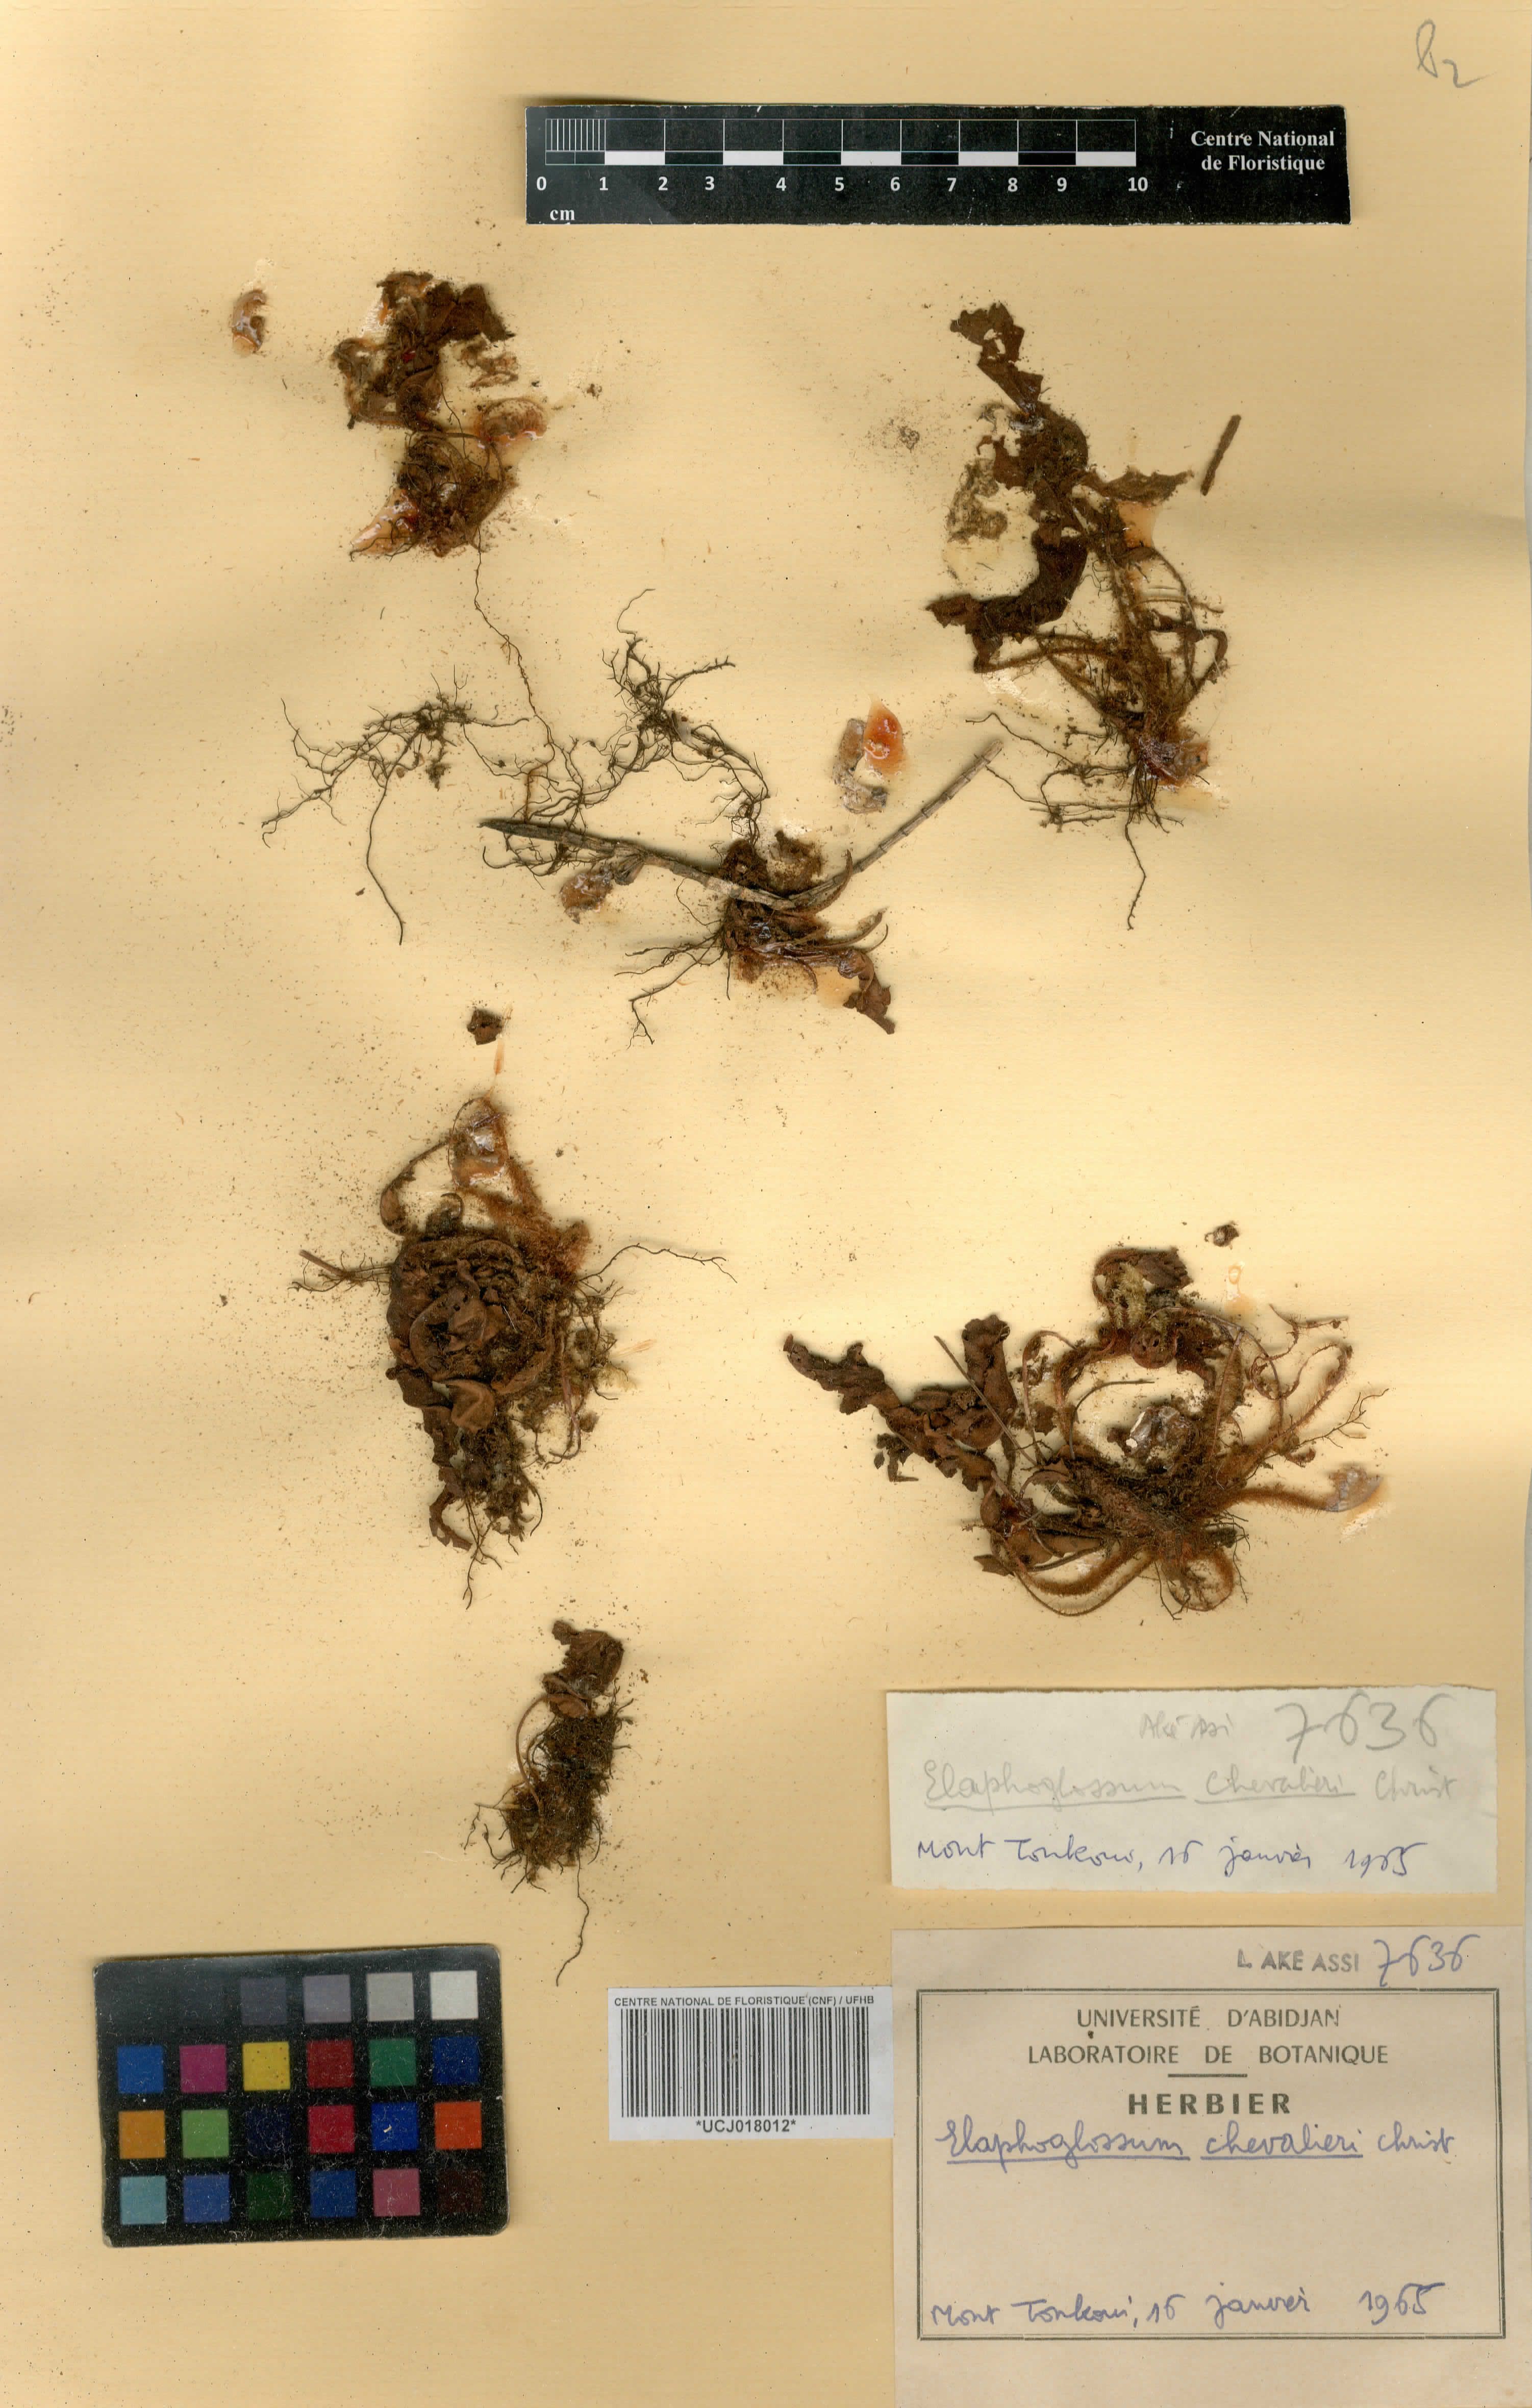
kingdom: Plantae
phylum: Tracheophyta
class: Polypodiopsida
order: Polypodiales
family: Dryopteridaceae
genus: Elaphoglossum
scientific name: Elaphoglossum chevalieri
